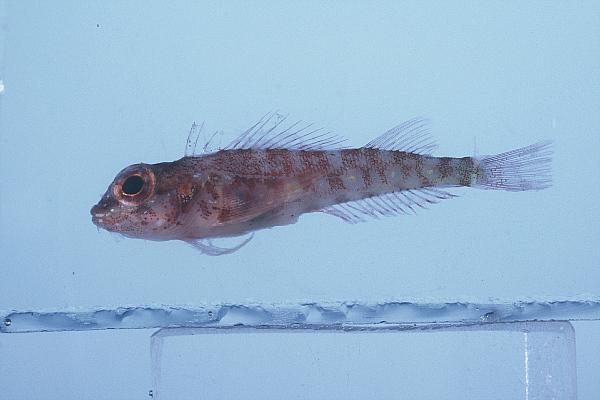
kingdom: Animalia
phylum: Chordata
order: Perciformes
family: Tripterygiidae
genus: Helcogramma
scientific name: Helcogramma fuscopinna
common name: Blackfin triplefin
